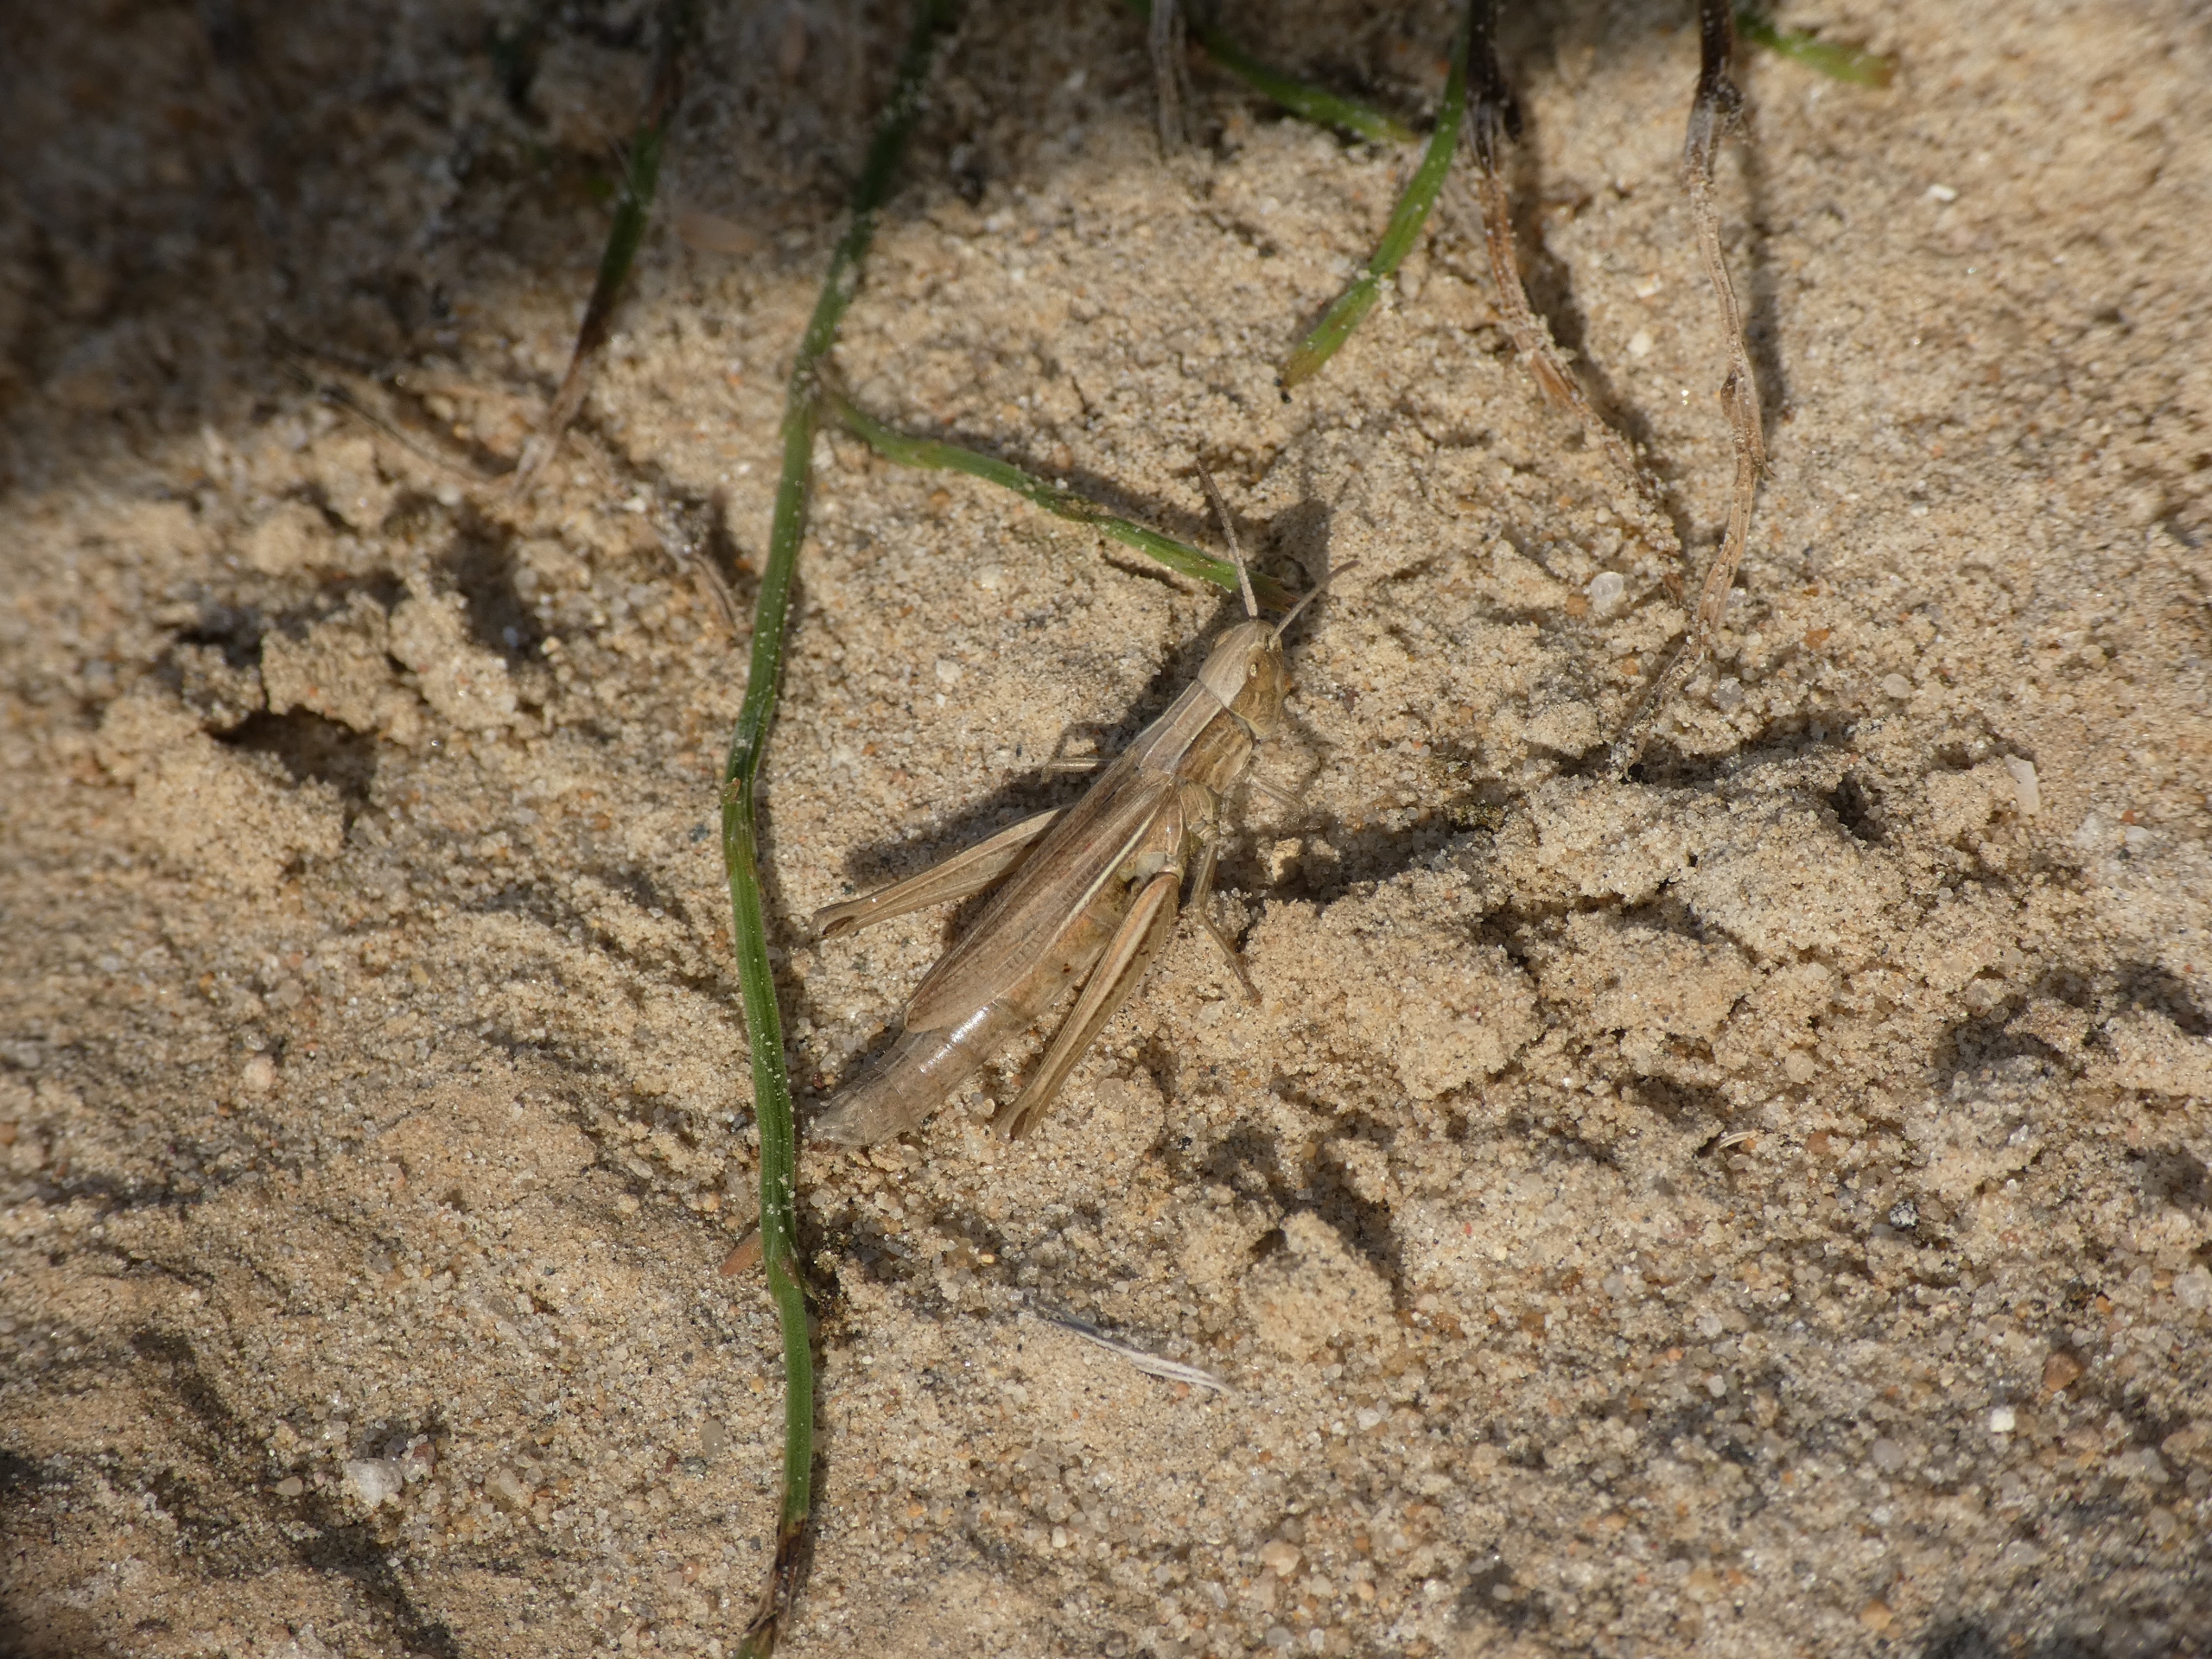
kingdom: Animalia
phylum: Arthropoda
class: Insecta
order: Orthoptera
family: Acrididae
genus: Chorthippus
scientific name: Chorthippus albomarginatus
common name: Strandengsgræshoppe
